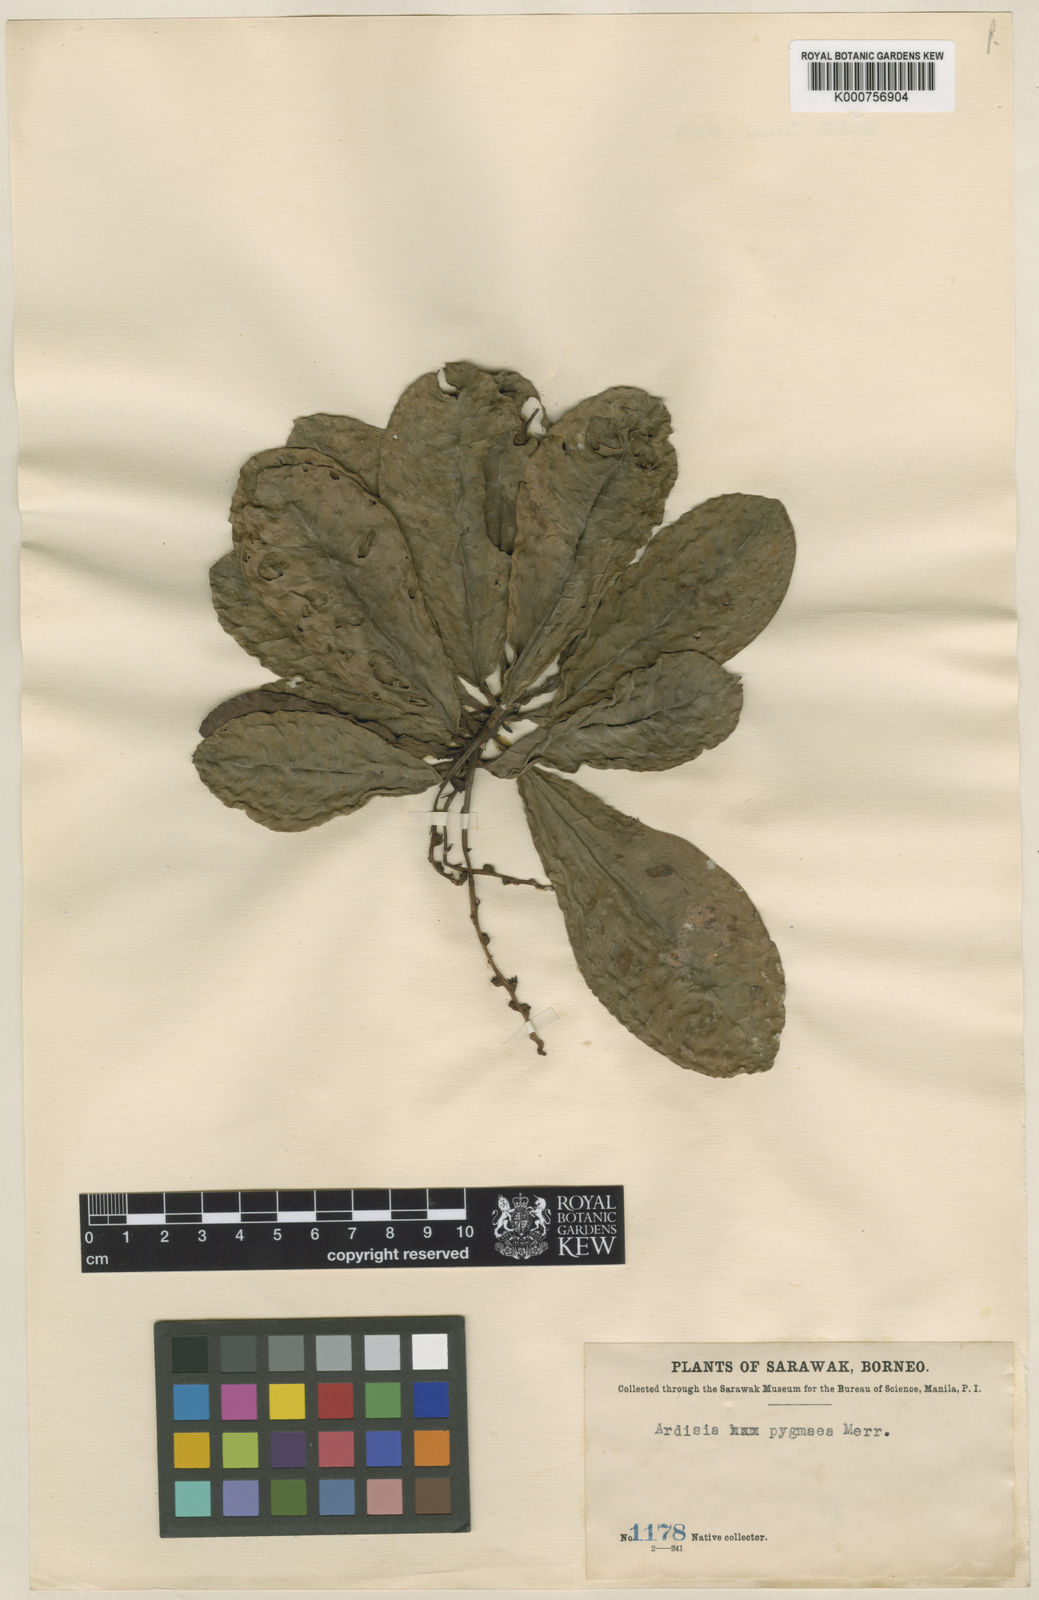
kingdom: Plantae
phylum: Tracheophyta
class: Magnoliopsida
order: Ericales
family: Primulaceae
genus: Ardisia
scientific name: Ardisia pygmaea
